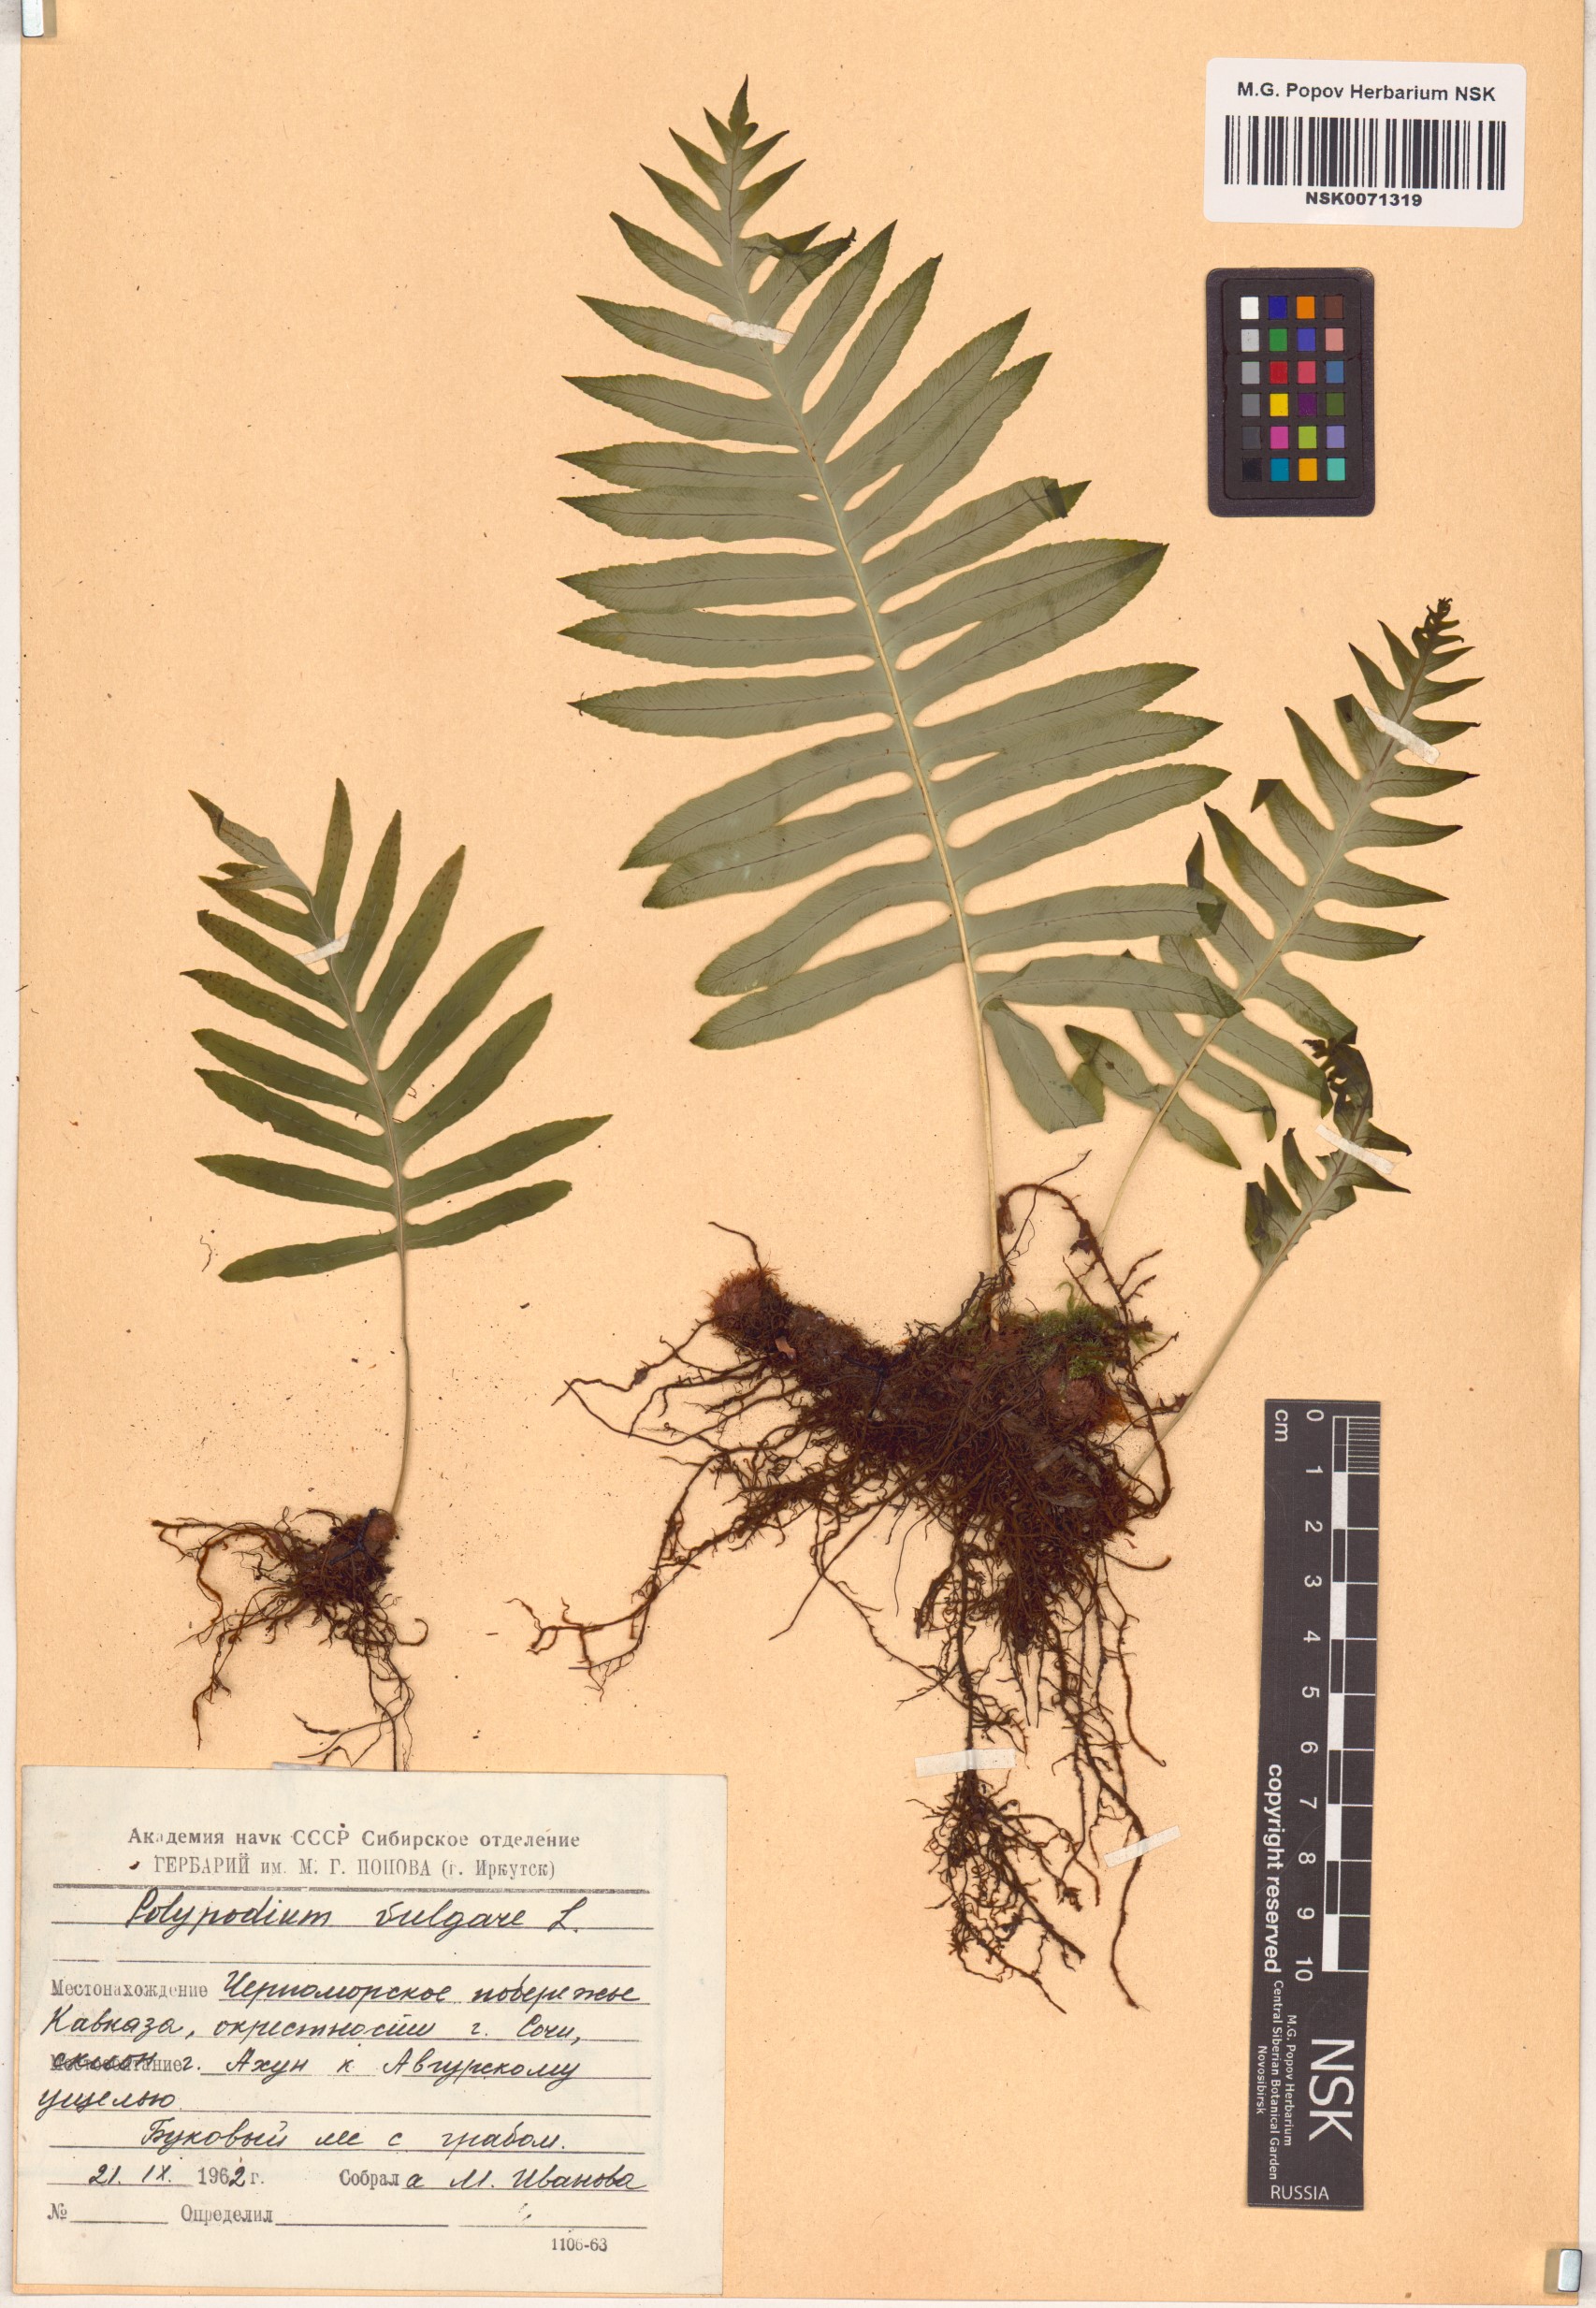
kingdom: Plantae
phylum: Tracheophyta
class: Polypodiopsida
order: Polypodiales
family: Polypodiaceae
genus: Polypodium
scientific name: Polypodium vulgare
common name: Common polypody
